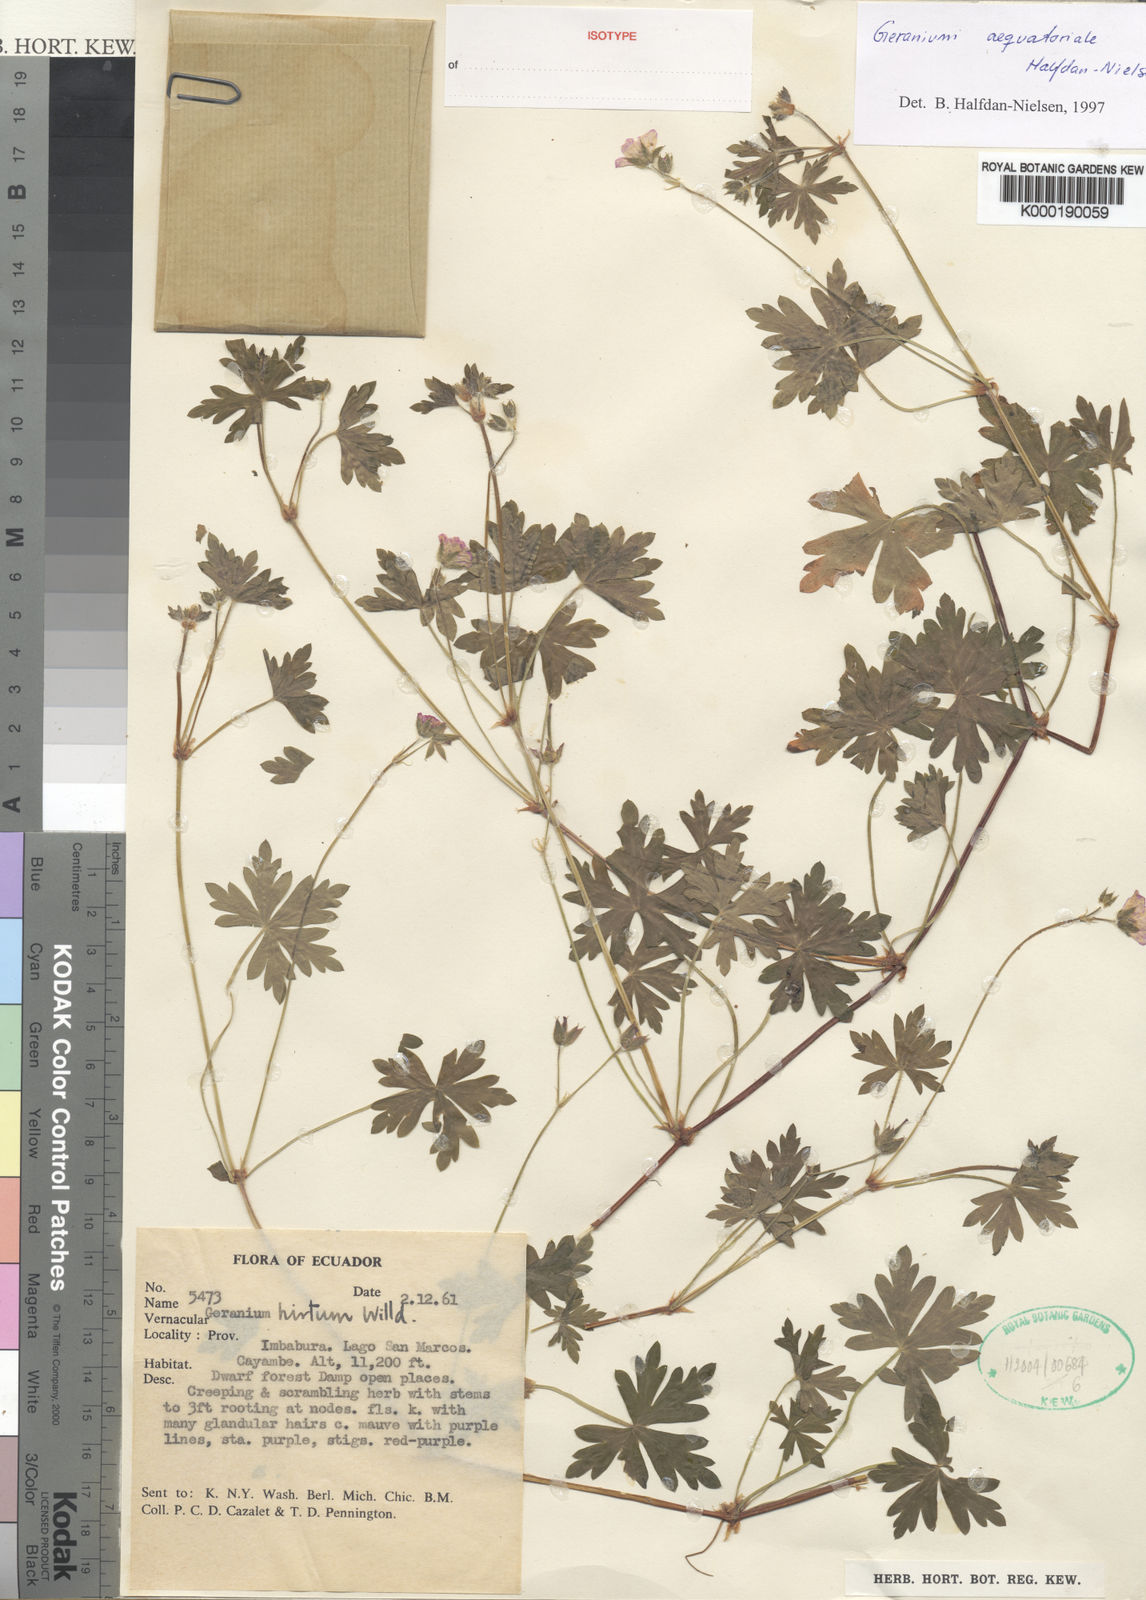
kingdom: Plantae
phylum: Tracheophyta
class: Magnoliopsida
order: Geraniales
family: Geraniaceae
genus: Geranium
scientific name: Geranium killipii
